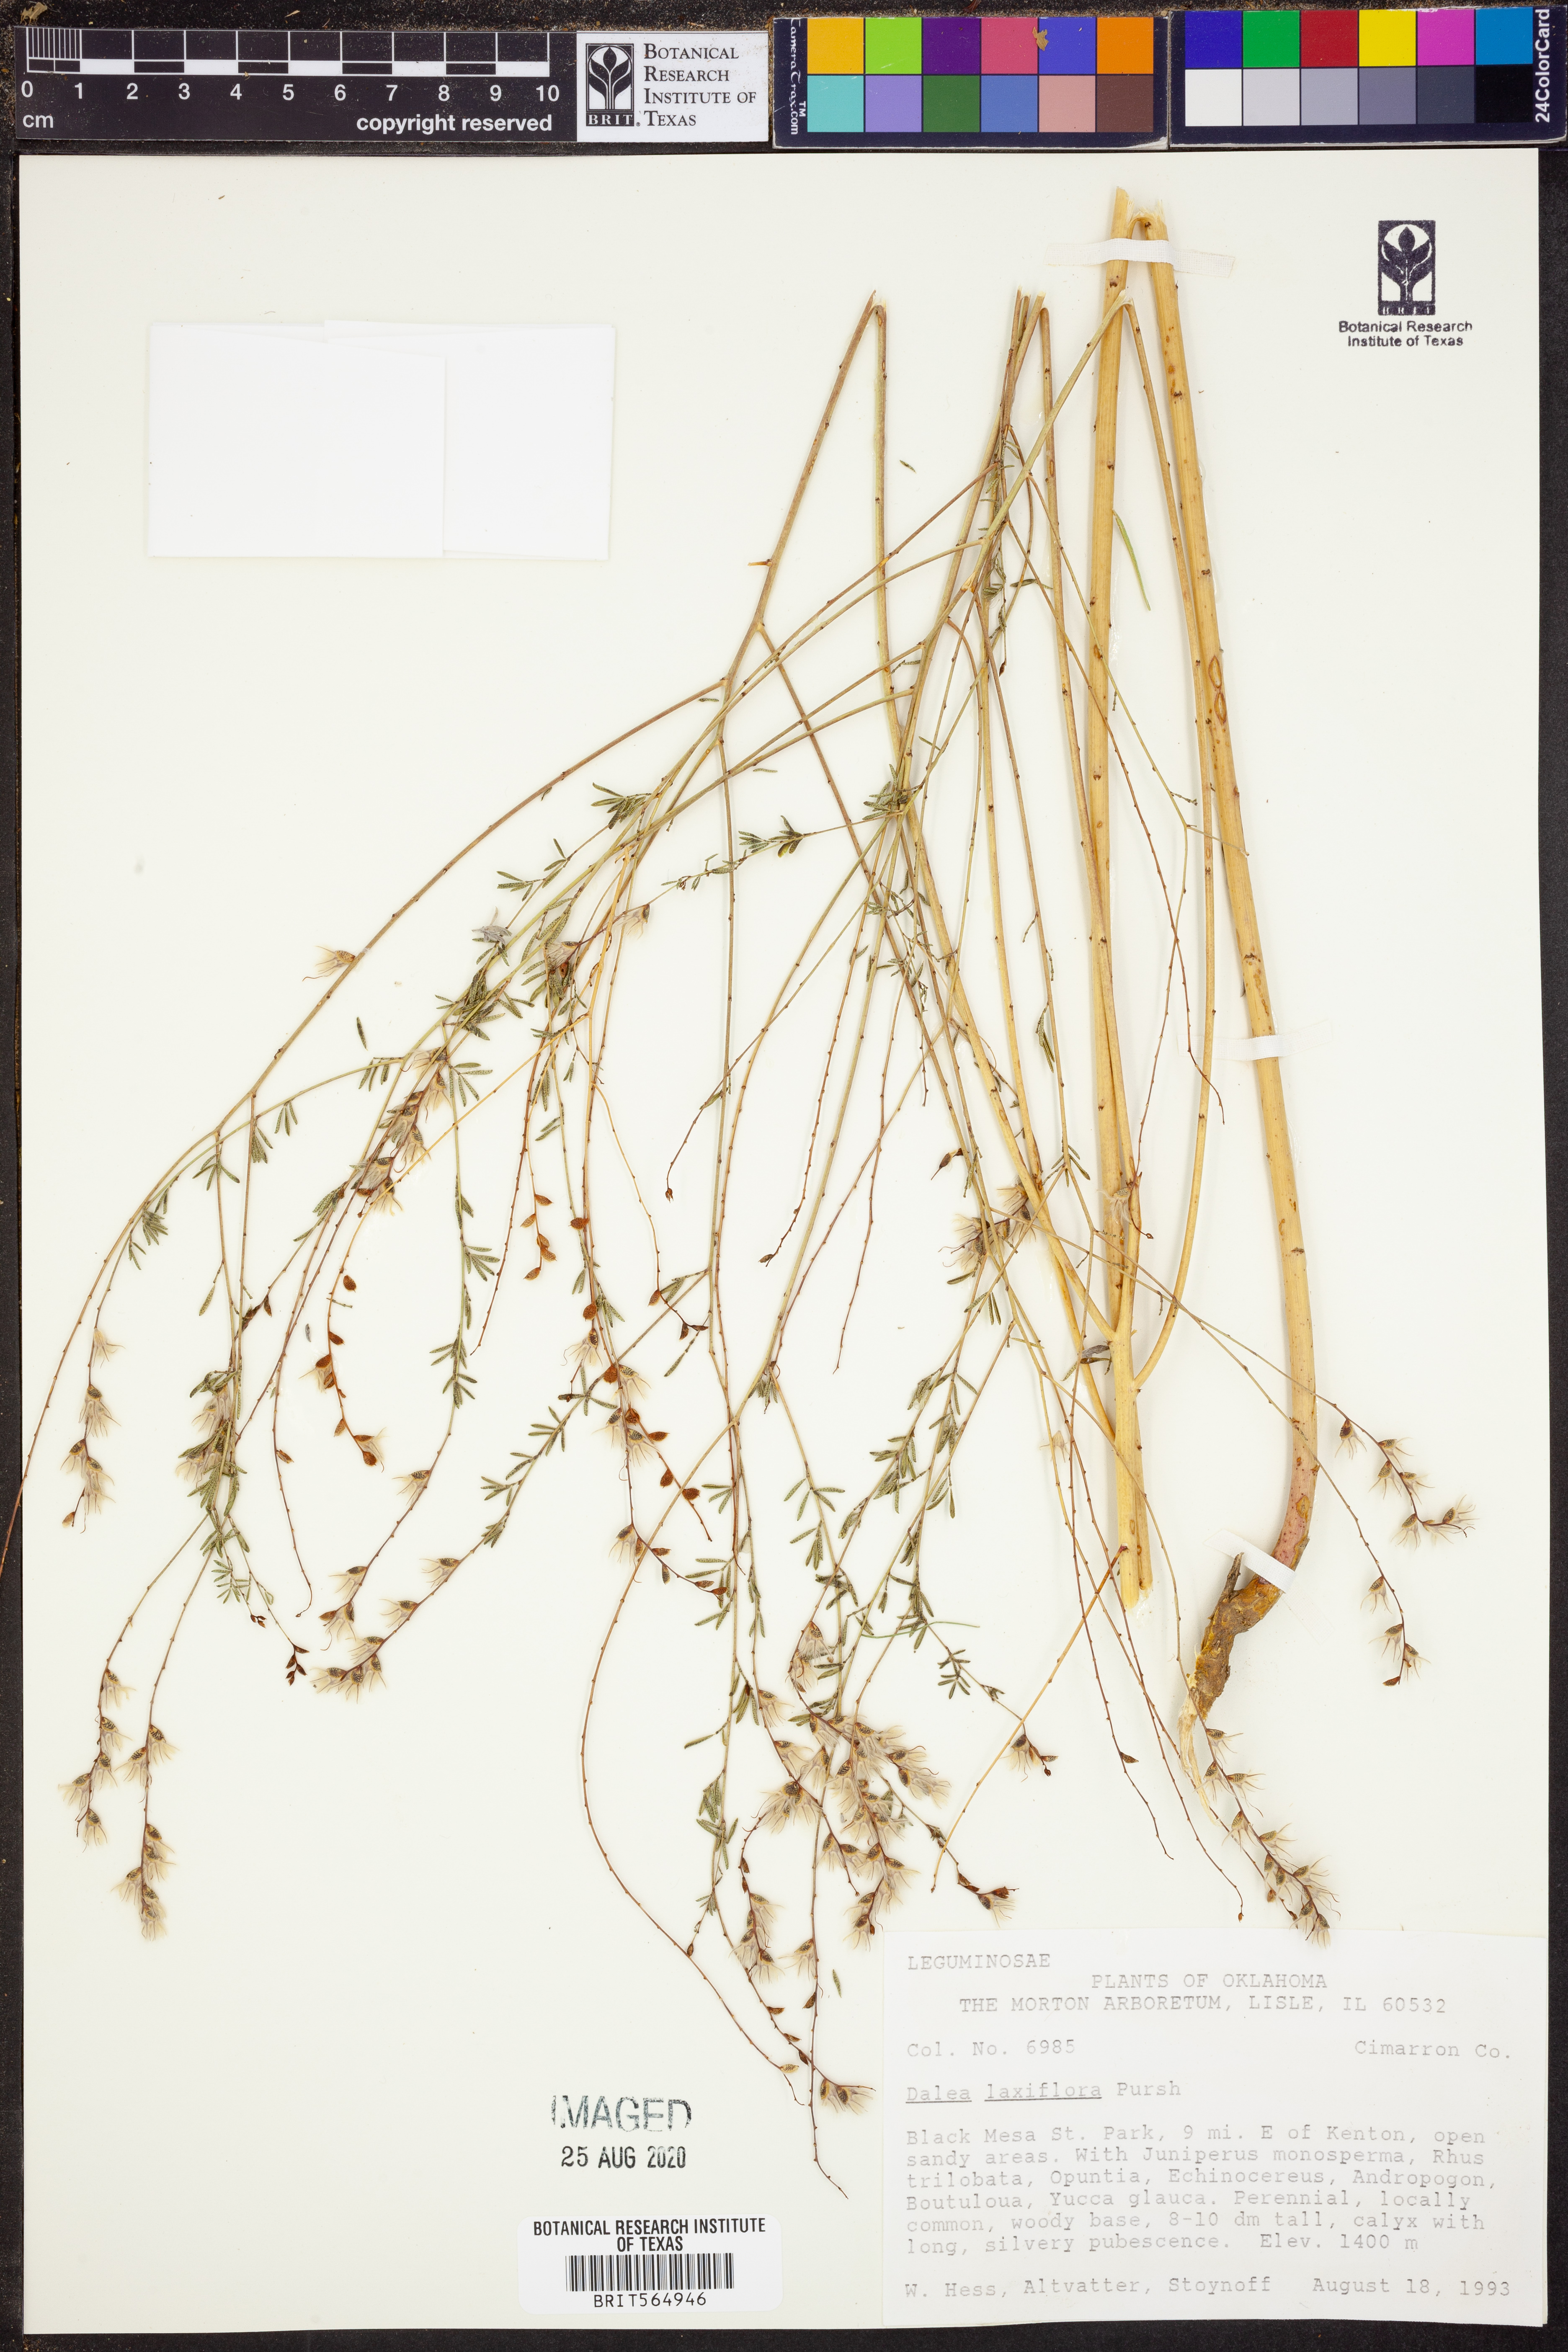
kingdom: Plantae
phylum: Tracheophyta
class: Magnoliopsida
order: Fabales
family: Fabaceae
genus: Dalea
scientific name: Dalea hegewischiana
